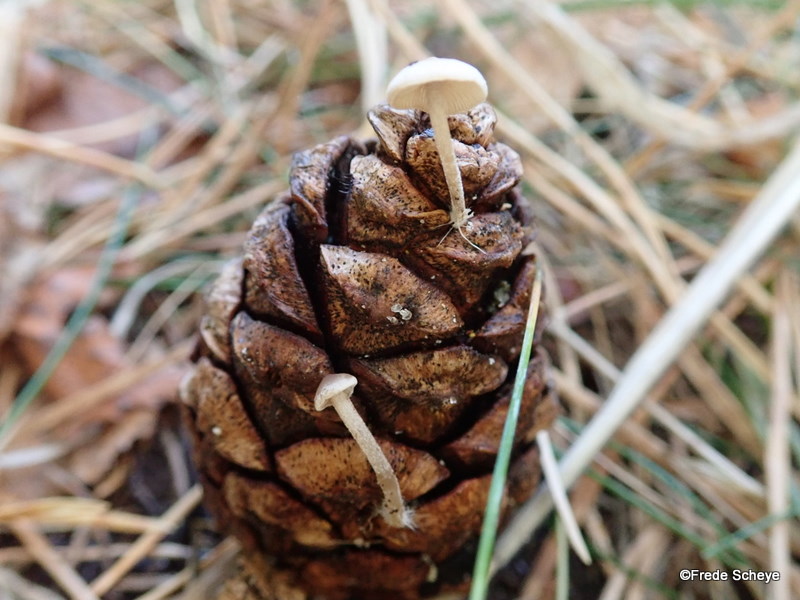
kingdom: Fungi
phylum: Basidiomycota
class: Agaricomycetes
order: Agaricales
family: Marasmiaceae
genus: Baeospora
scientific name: Baeospora myosura
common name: koglebruskhat
